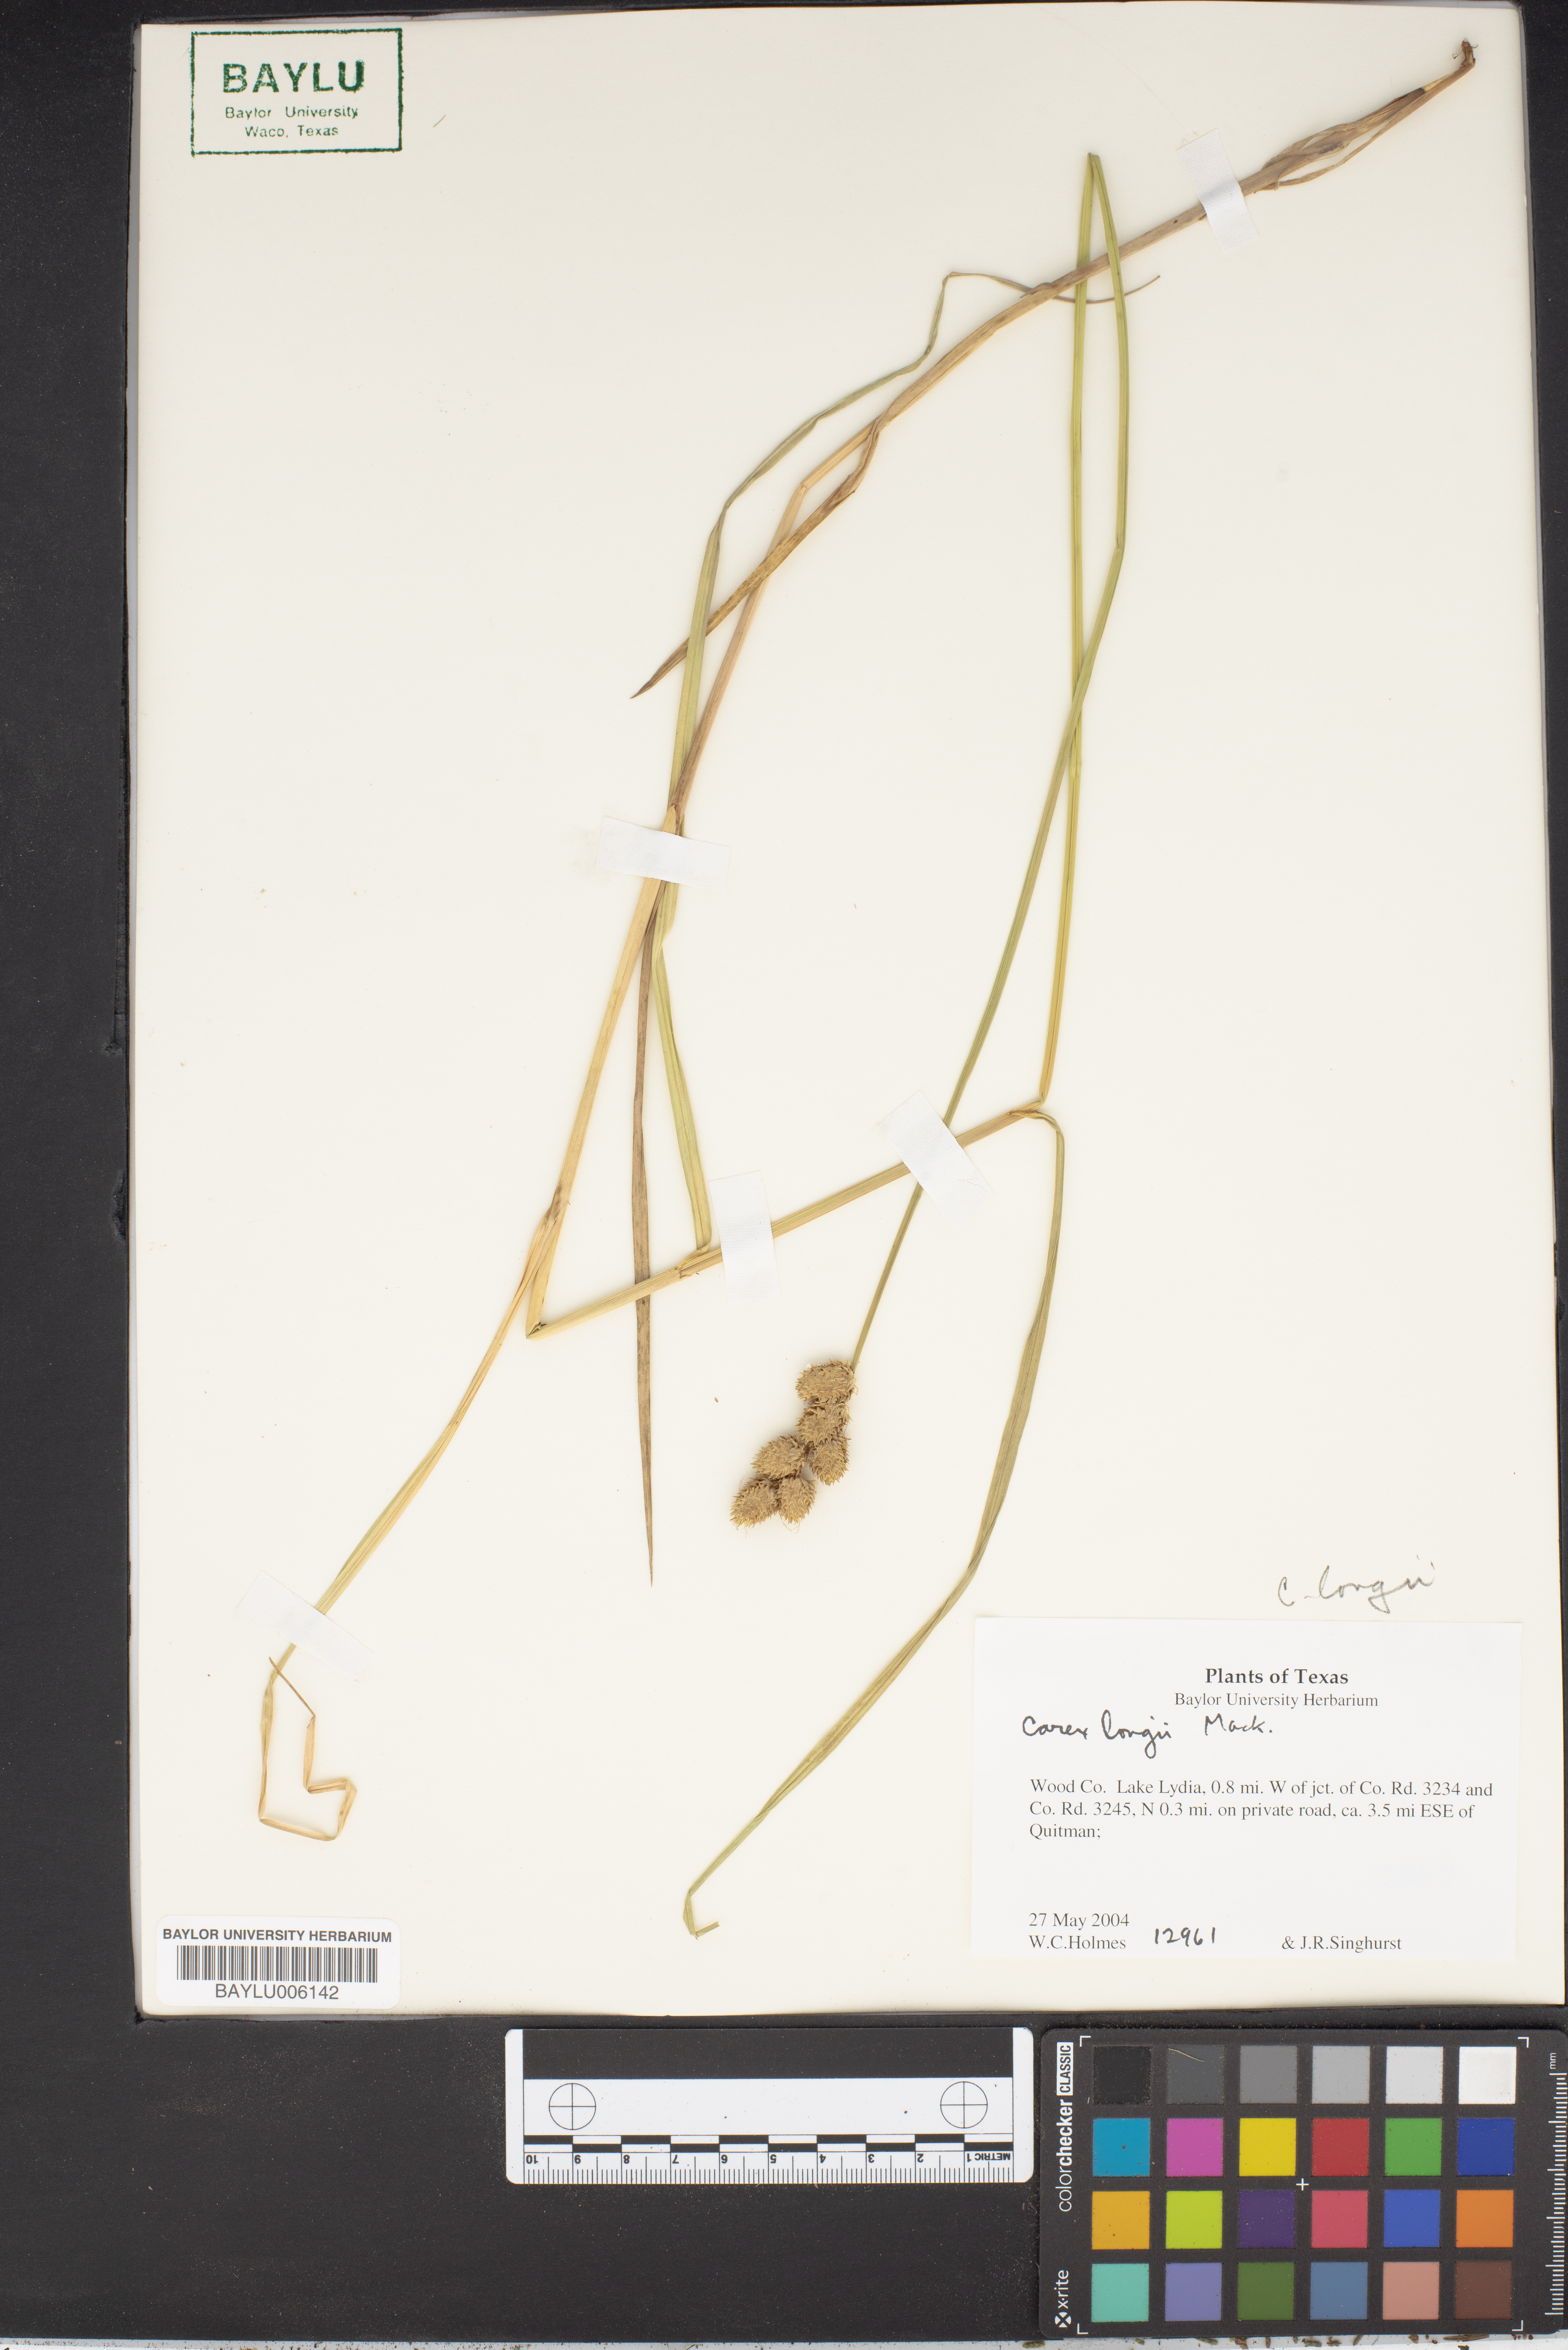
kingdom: Plantae
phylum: Tracheophyta
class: Liliopsida
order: Poales
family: Cyperaceae
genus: Carex
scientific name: Carex longii
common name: Long's sedge
